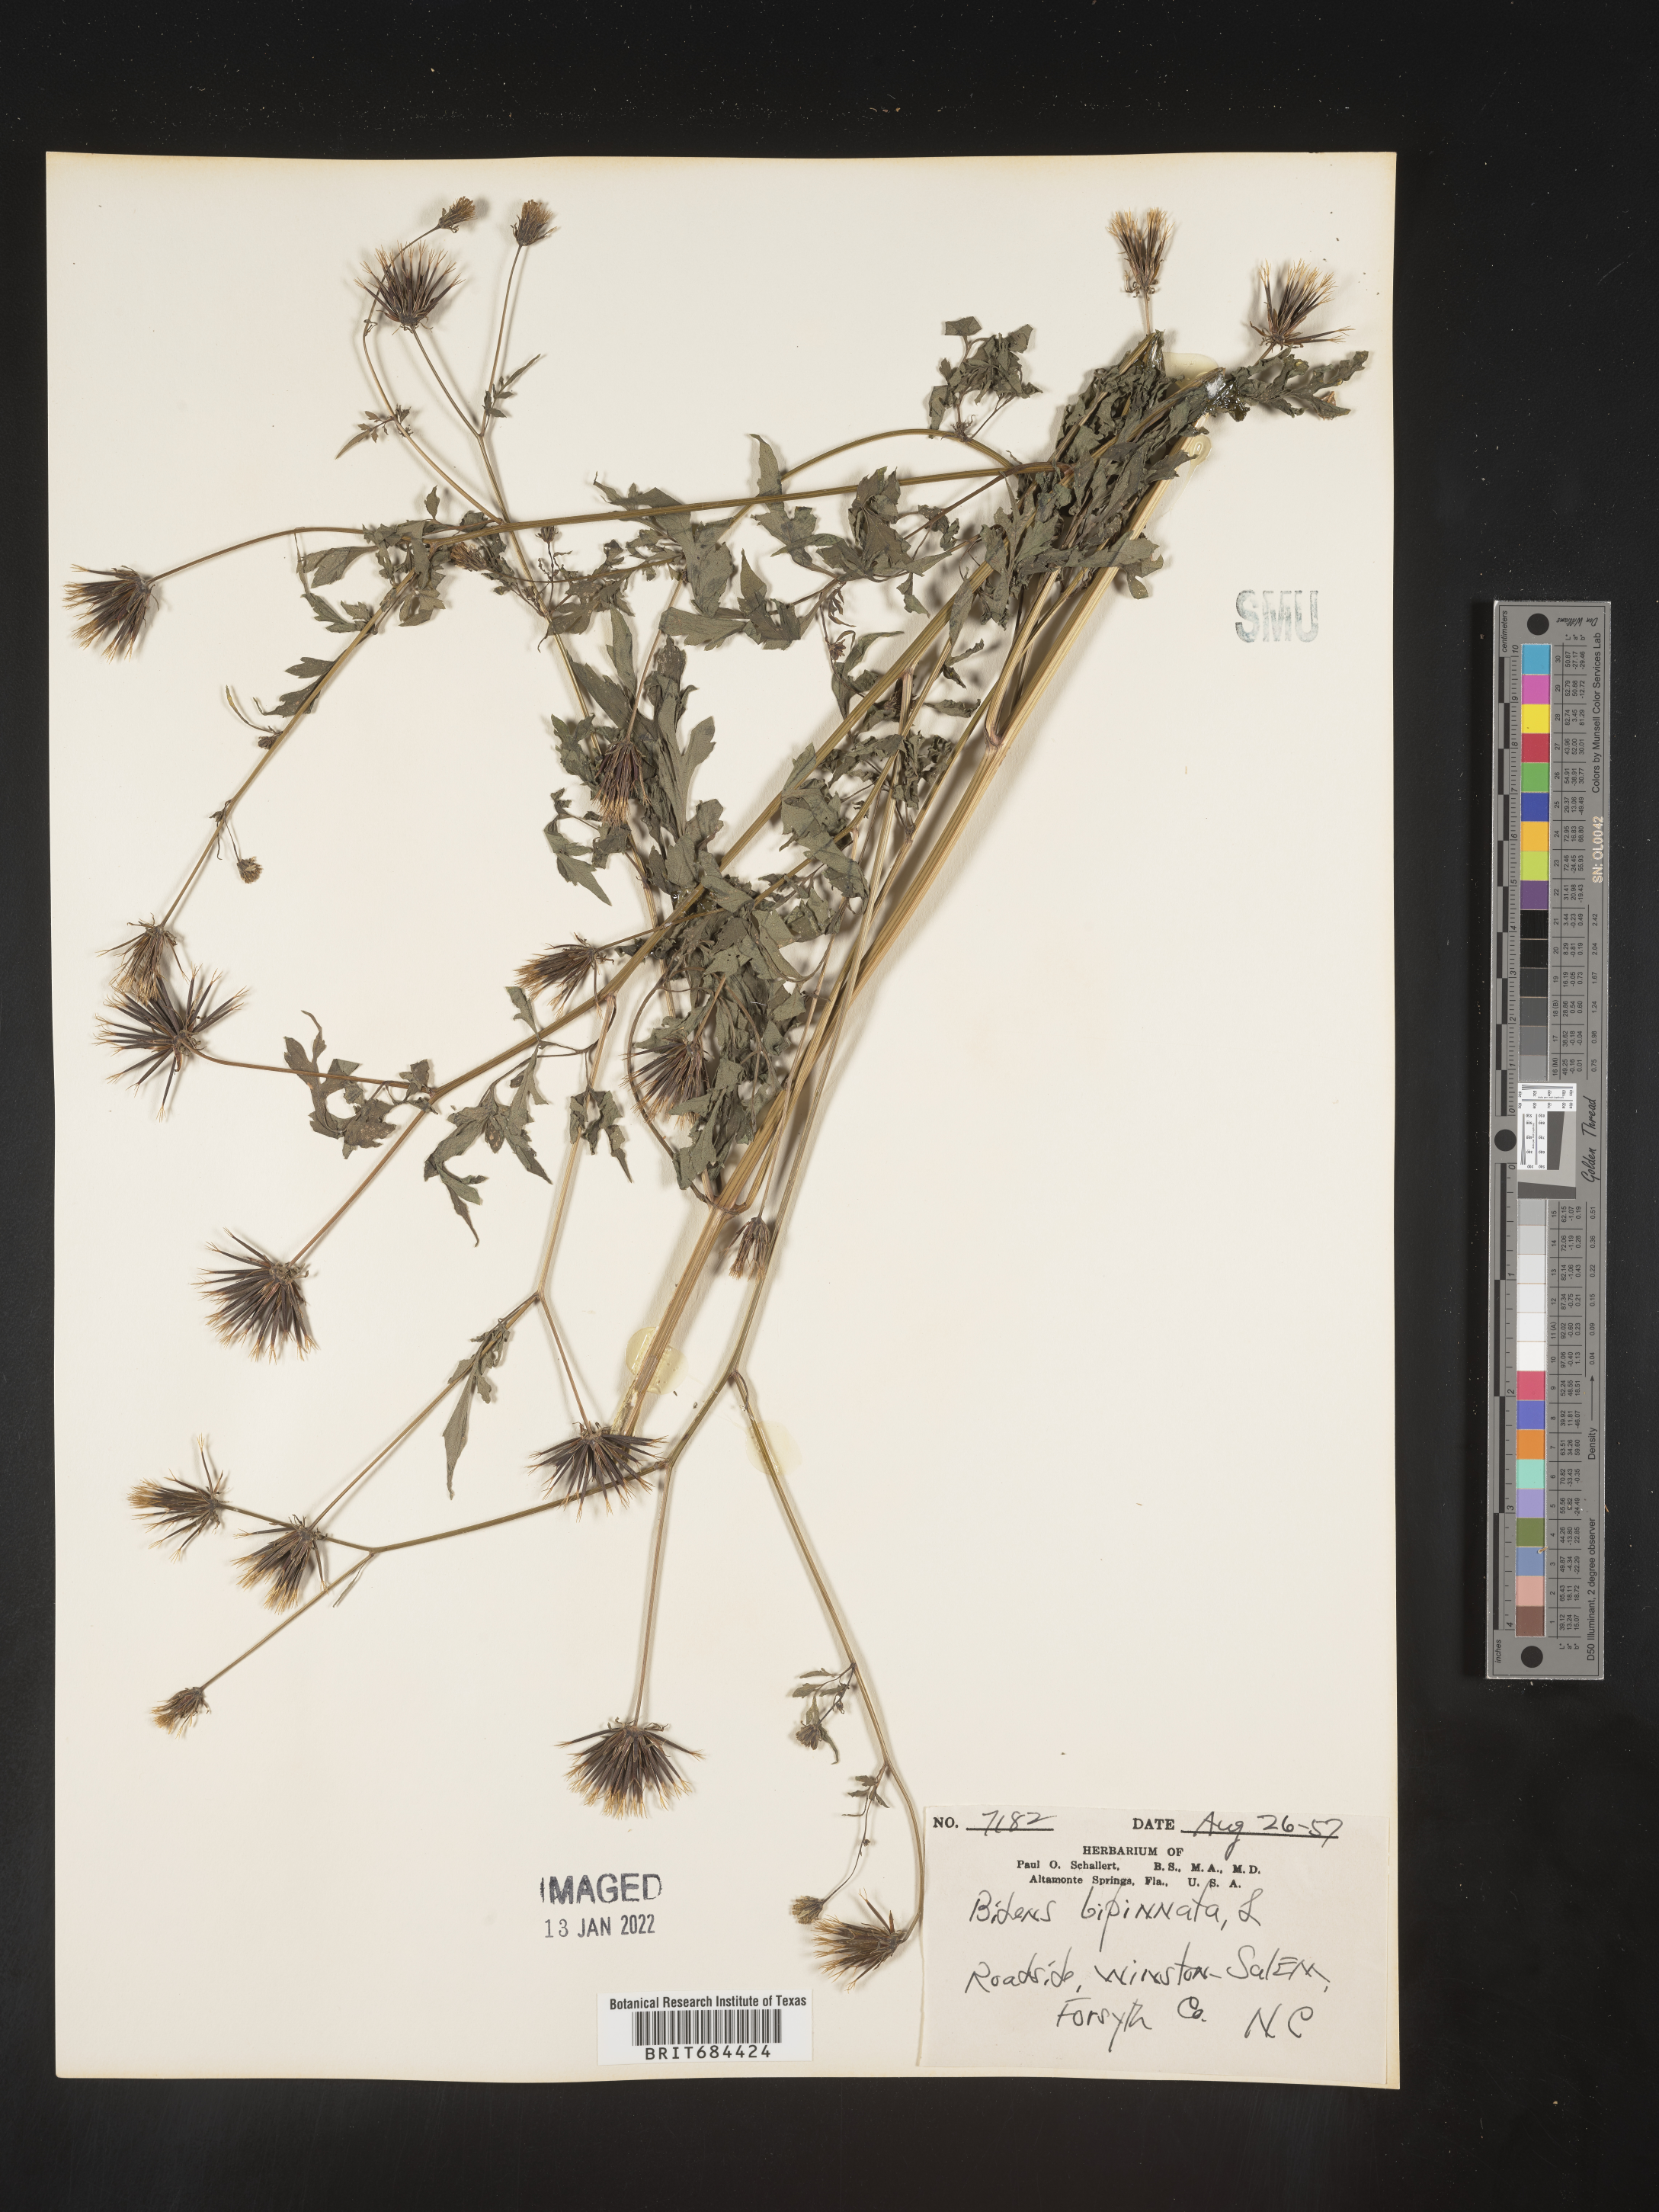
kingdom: Plantae
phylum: Tracheophyta
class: Magnoliopsida
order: Asterales
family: Asteraceae
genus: Bidens
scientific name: Bidens bipinnata
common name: Spanish-needles
